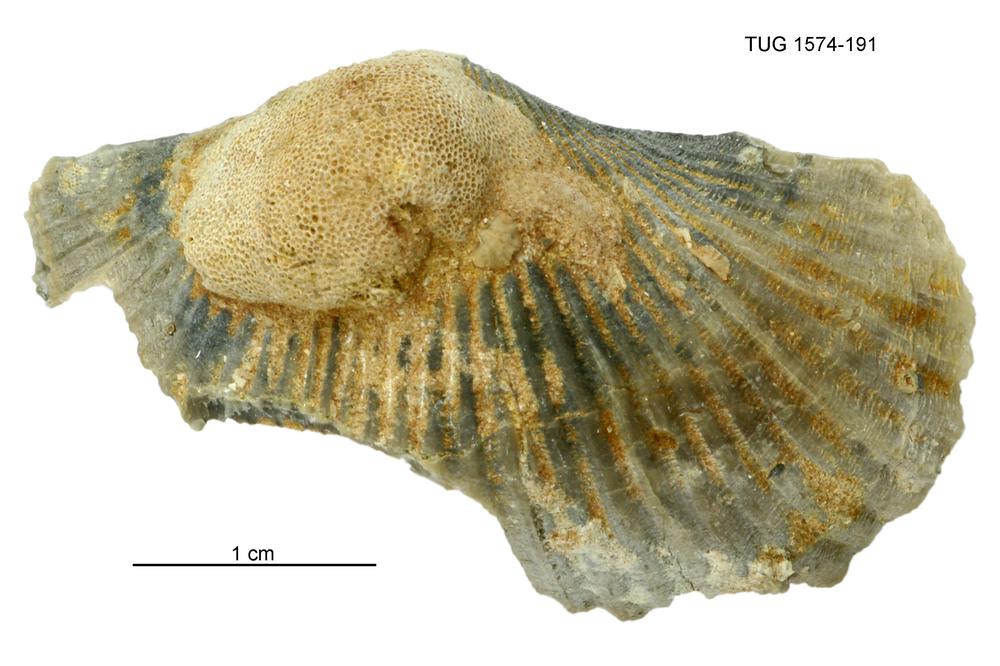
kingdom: Animalia
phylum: Brachiopoda
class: Rhynchonellata
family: Orthidae
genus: Cyrtonotella
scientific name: Cyrtonotella Orthis kuckersiana
